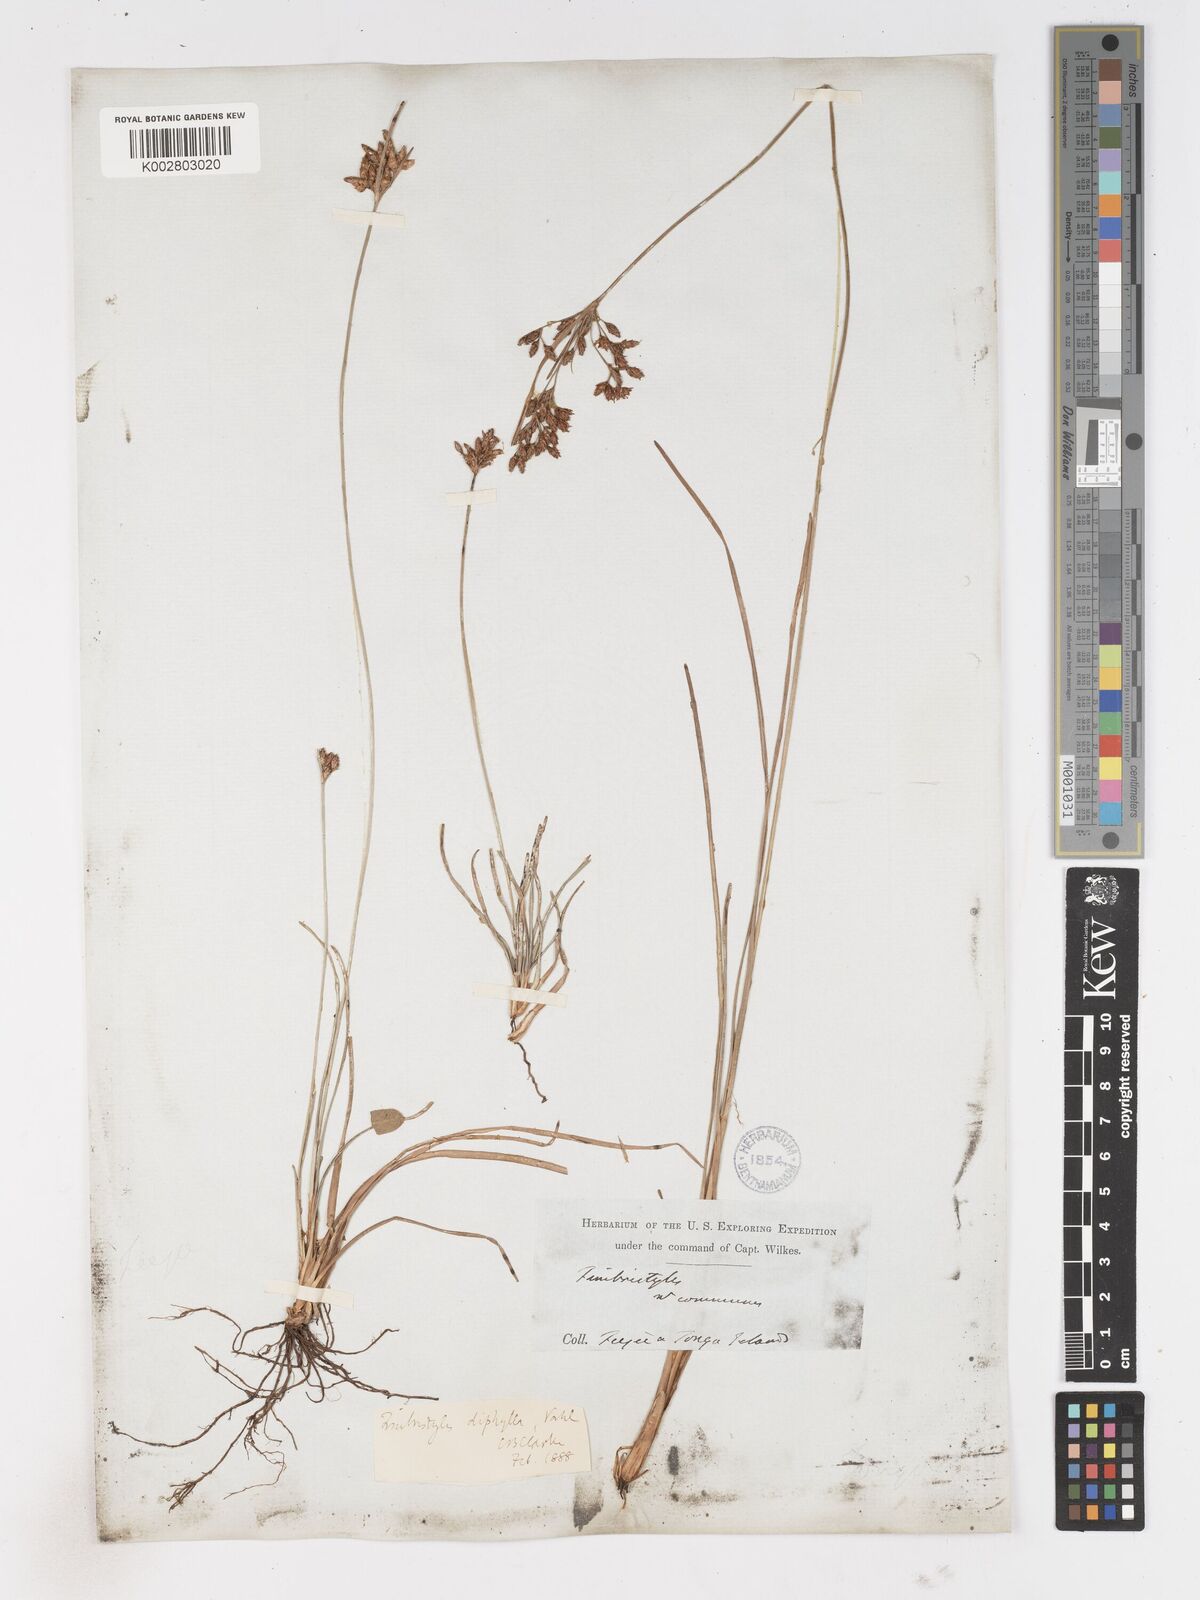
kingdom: Plantae
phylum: Tracheophyta
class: Liliopsida
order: Poales
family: Cyperaceae
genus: Fimbristylis
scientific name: Fimbristylis dichotoma
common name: Forked fimbry
